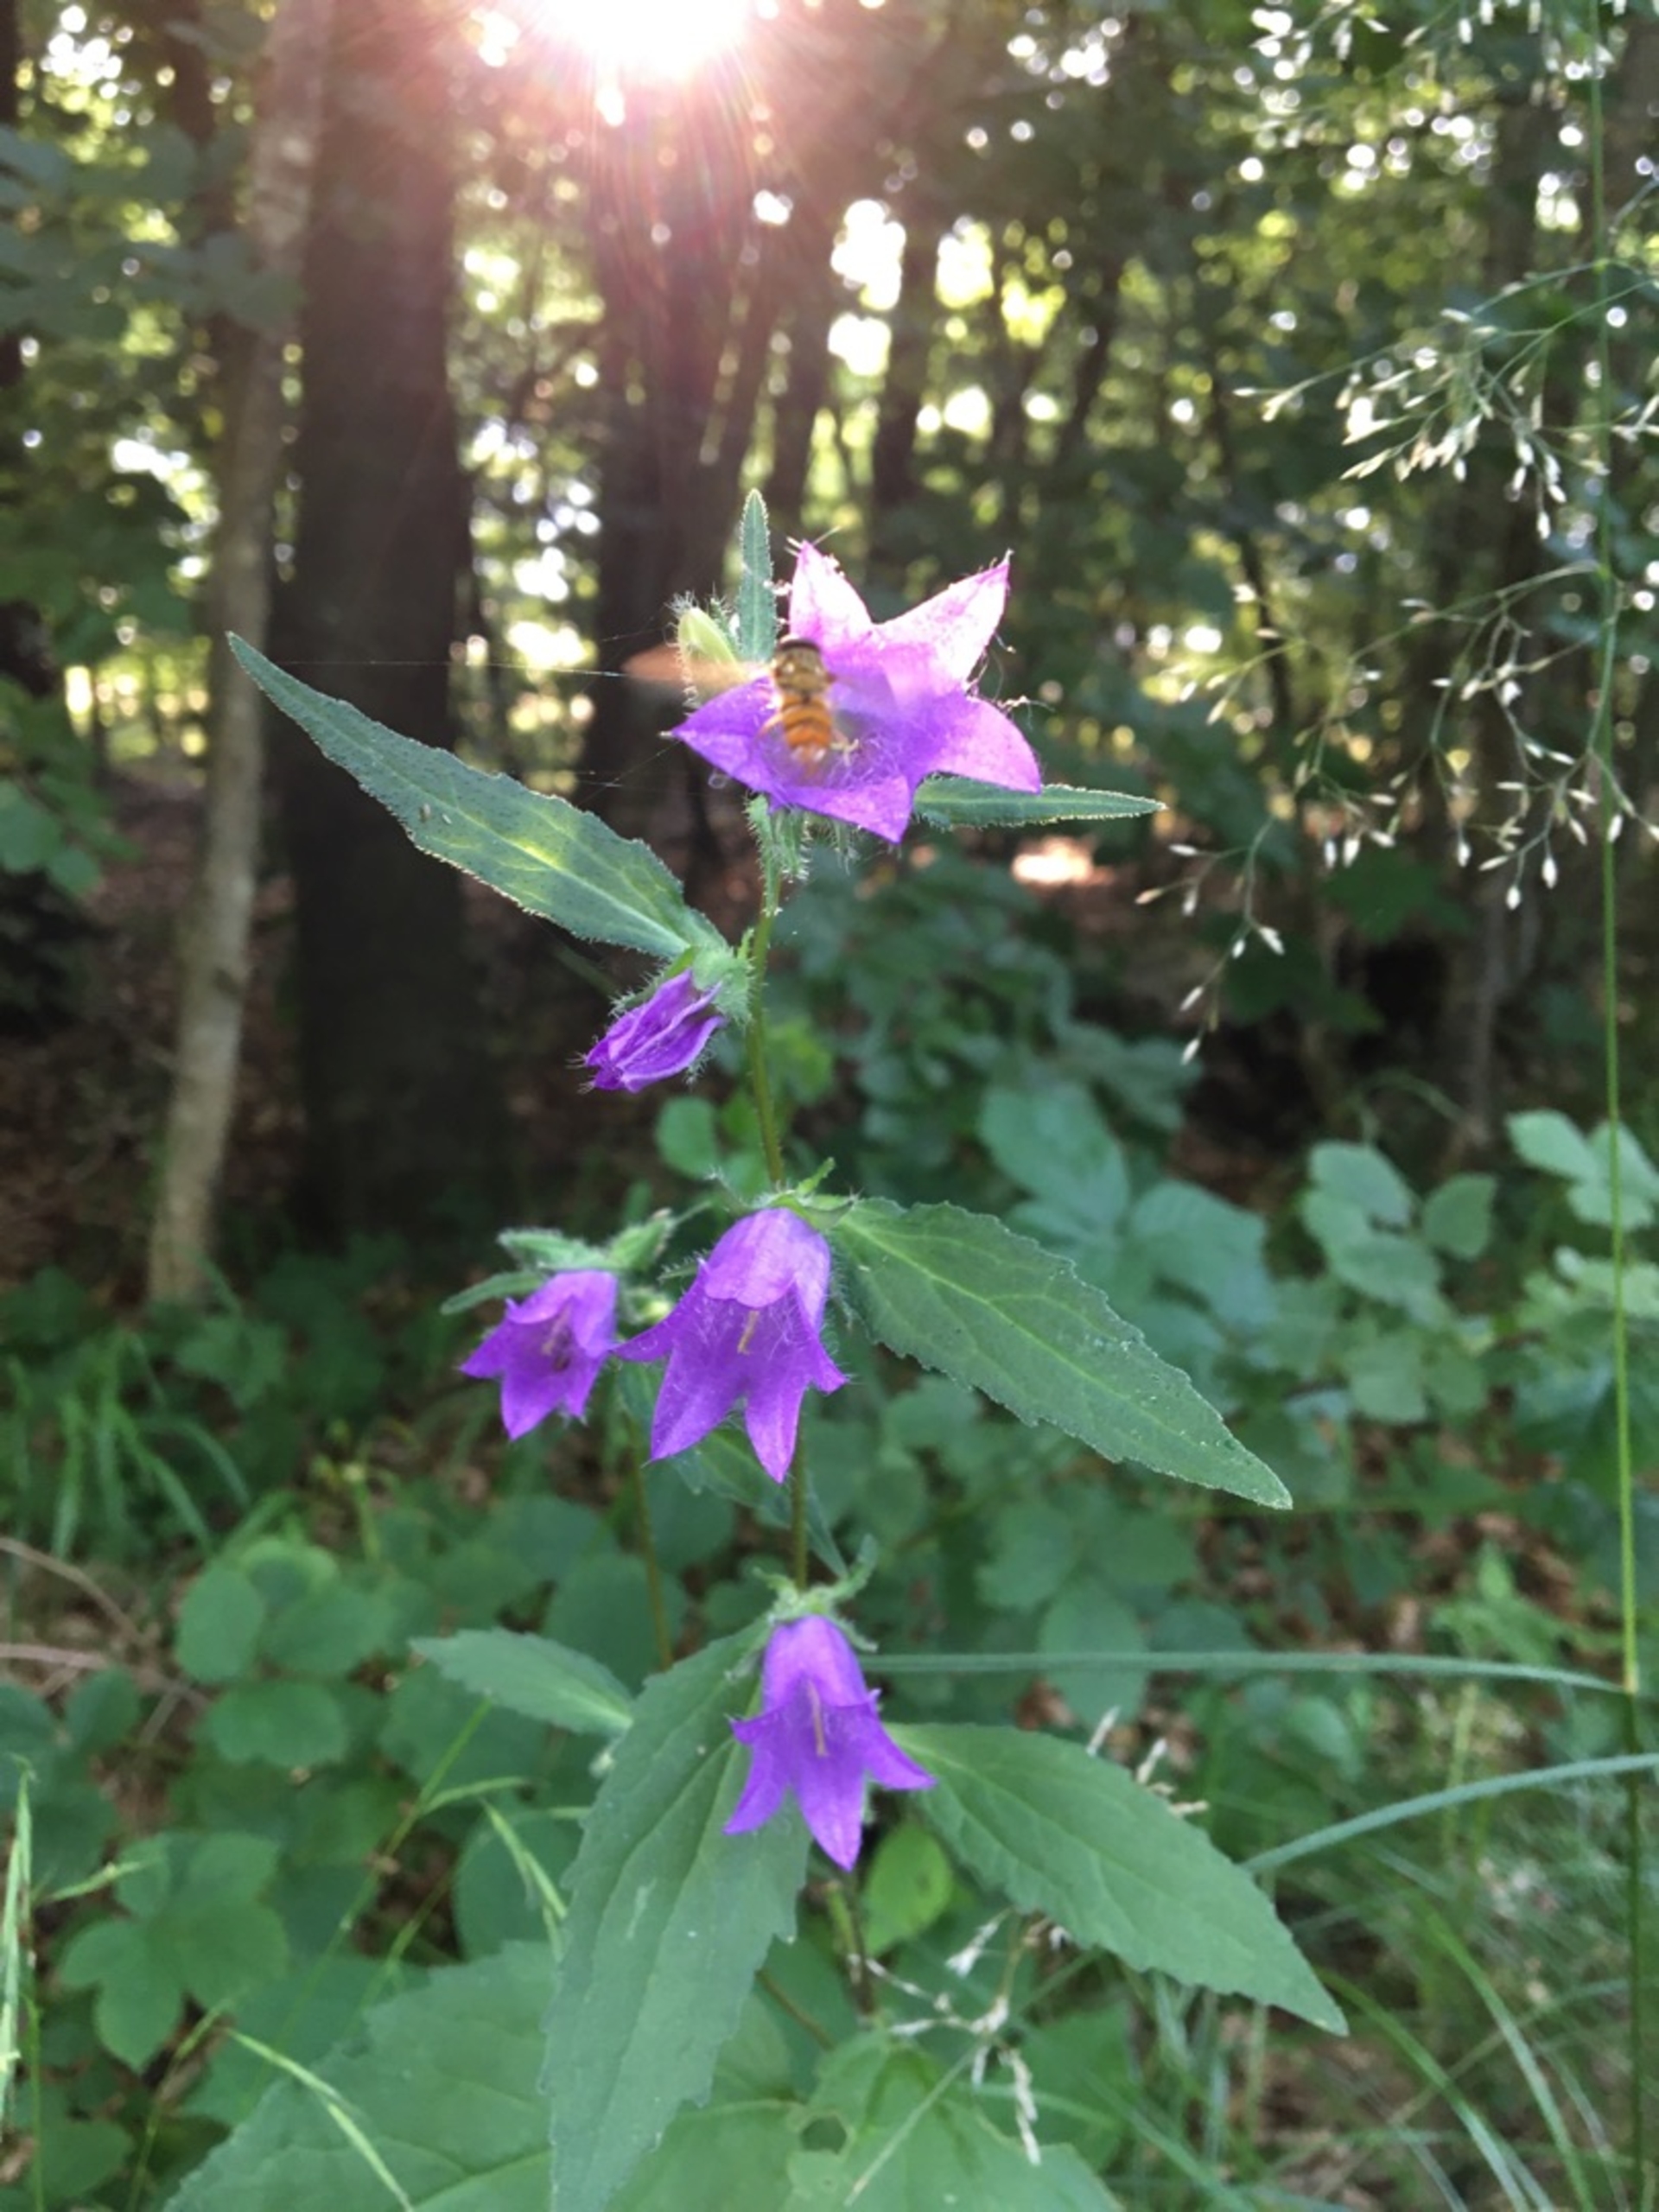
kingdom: Plantae
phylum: Tracheophyta
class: Magnoliopsida
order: Asterales
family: Campanulaceae
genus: Campanula
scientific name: Campanula trachelium
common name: Nælde-klokke
